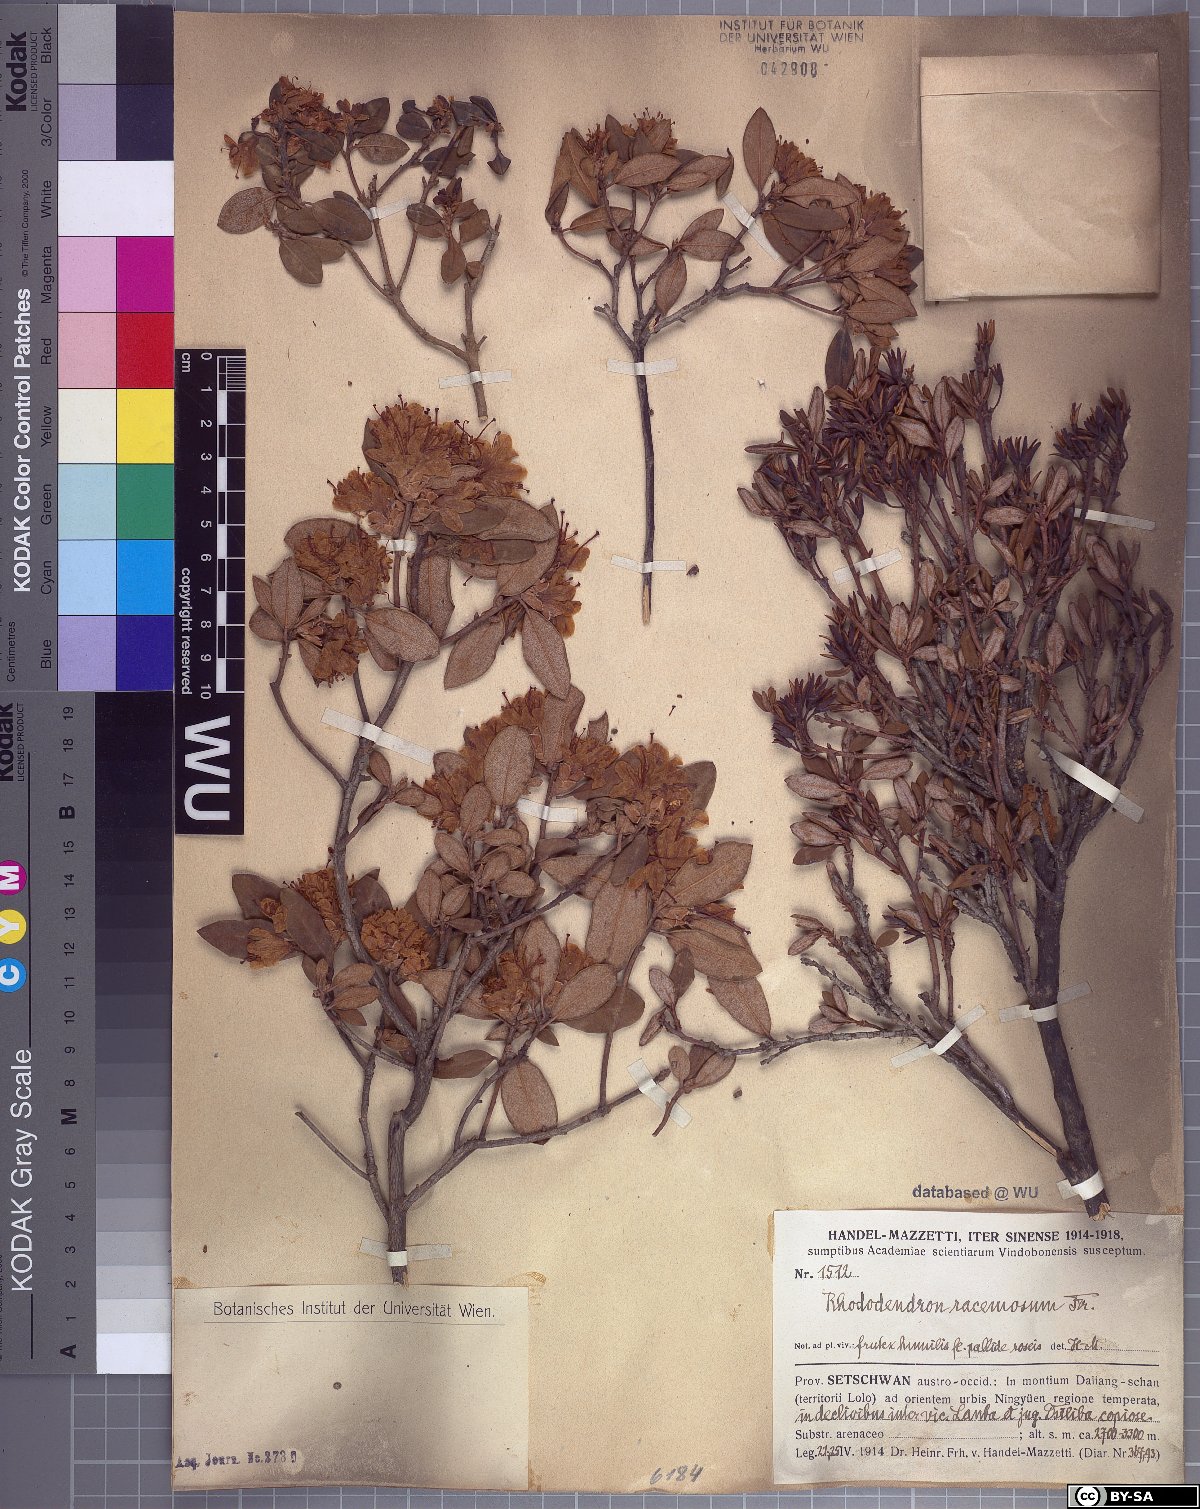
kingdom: Plantae
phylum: Tracheophyta
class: Magnoliopsida
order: Ericales
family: Ericaceae
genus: Rhododendron
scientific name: Rhododendron racemosum
